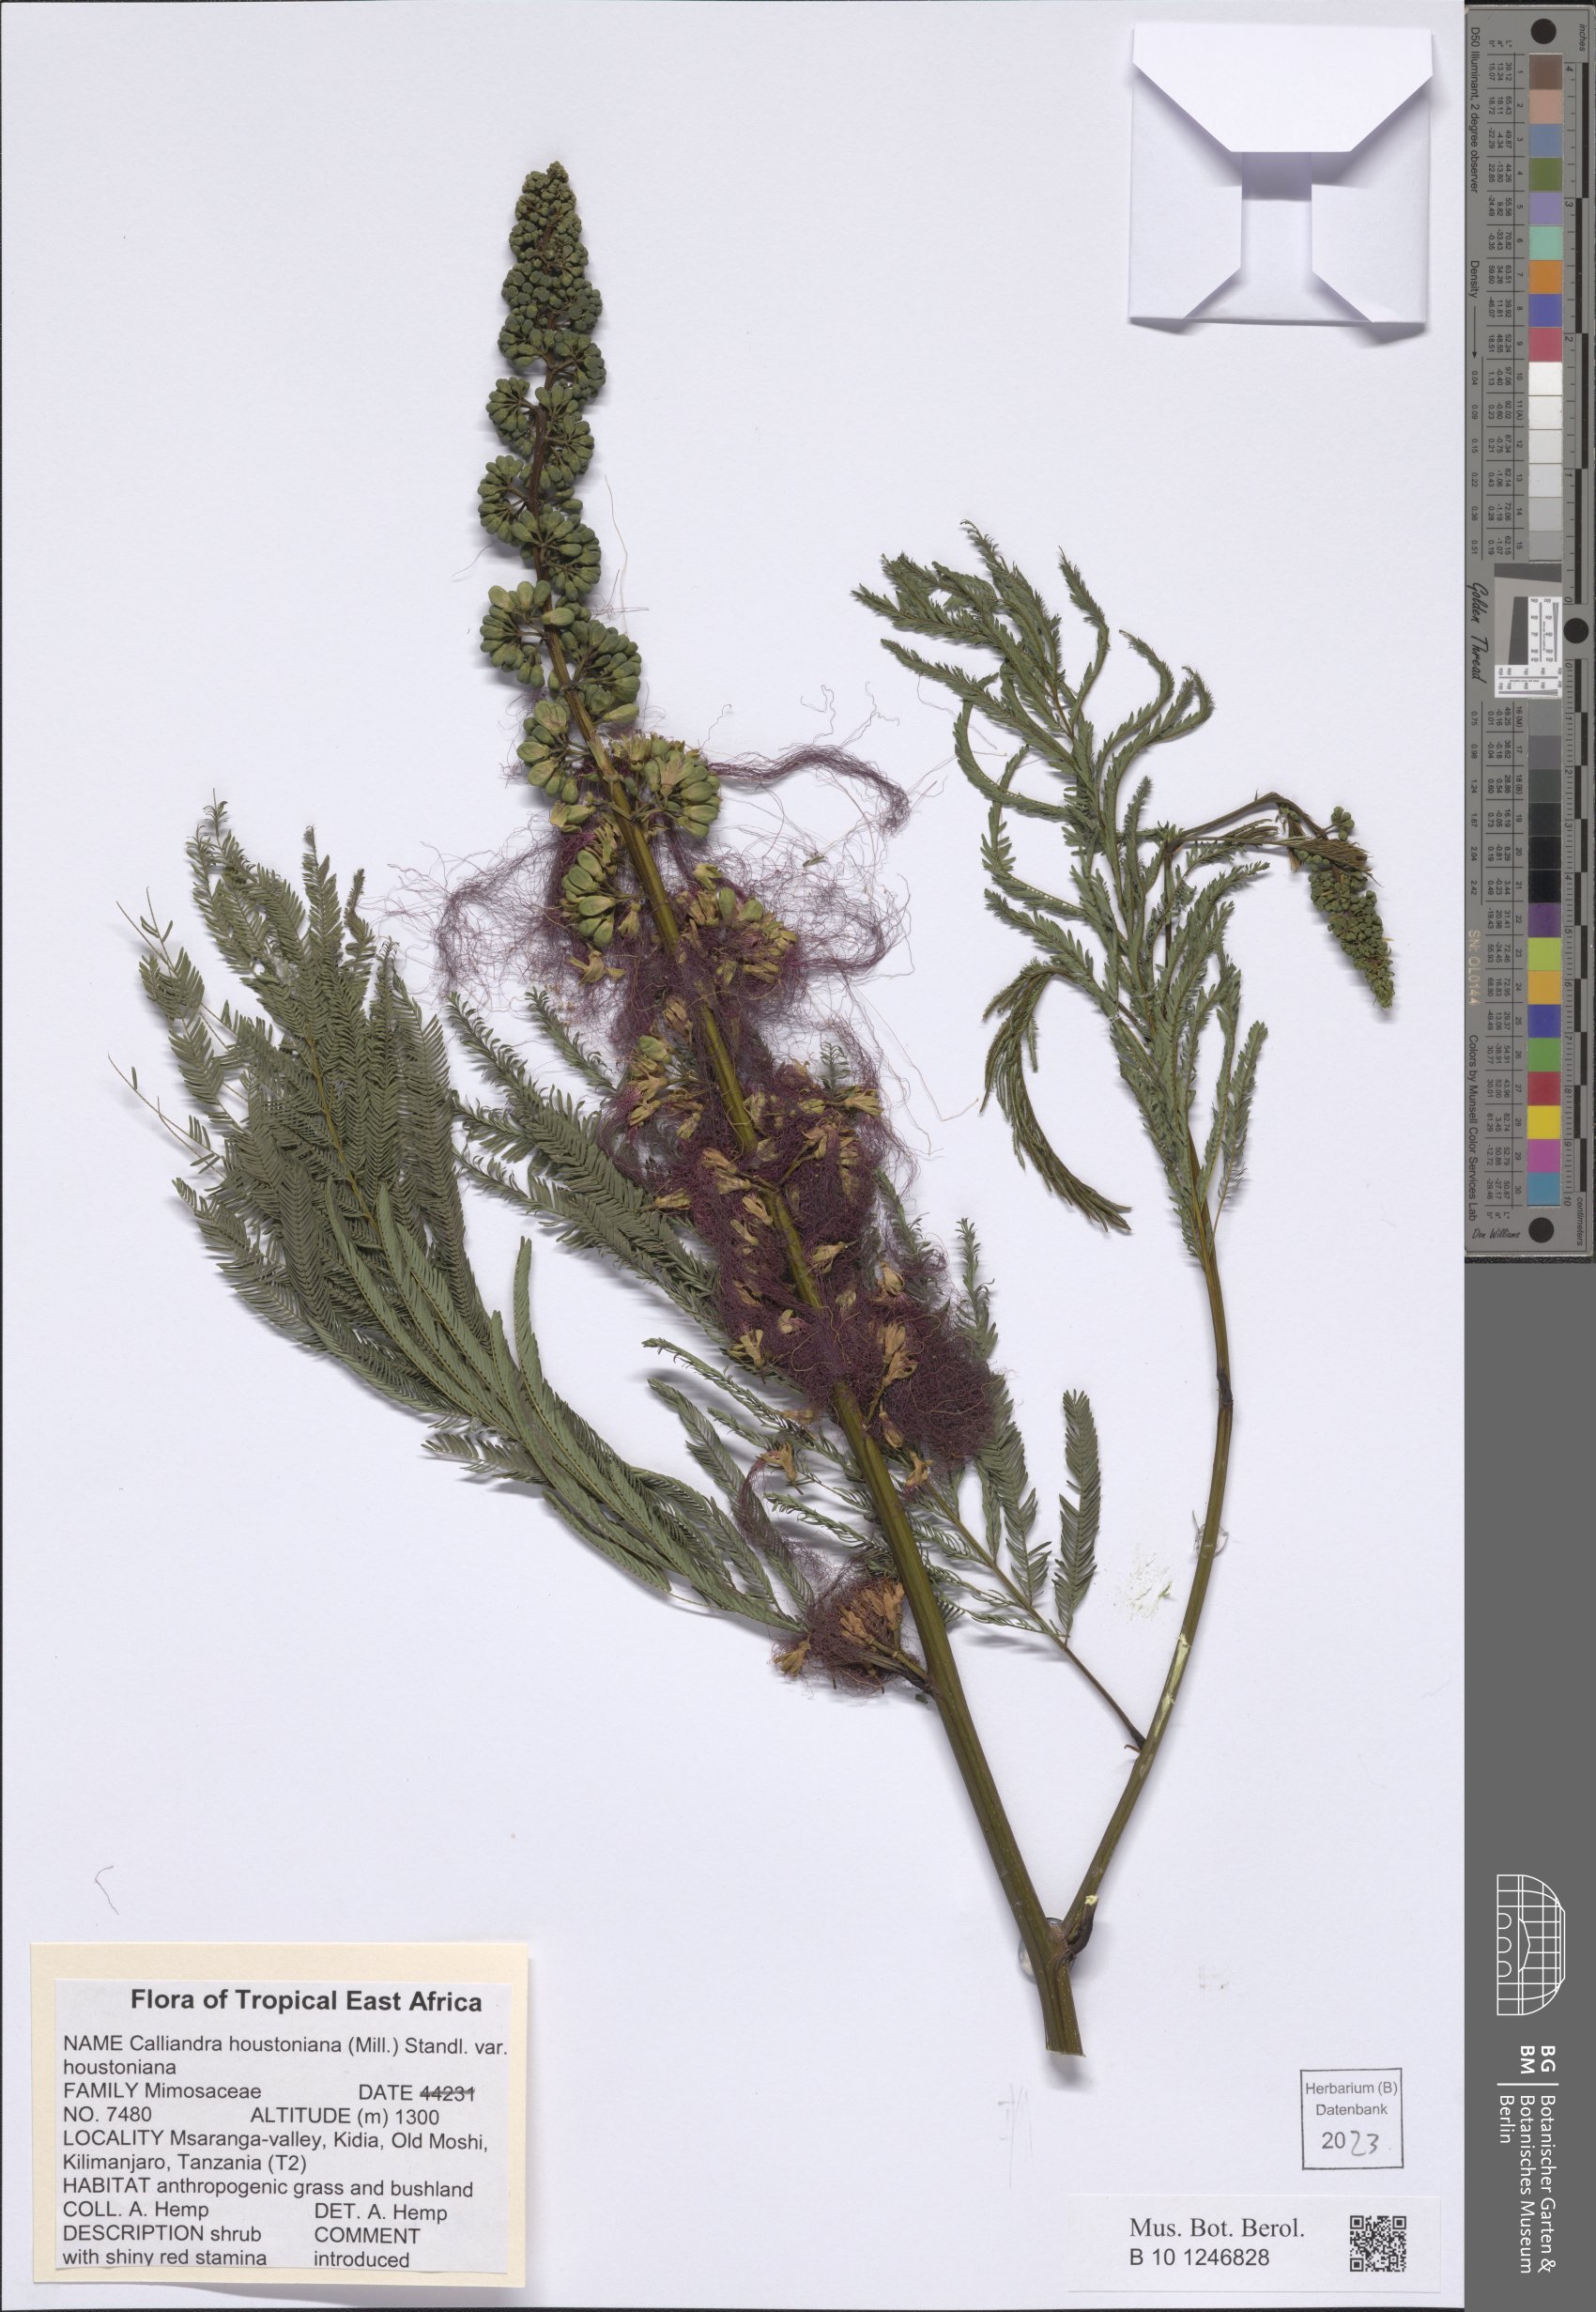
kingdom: Plantae
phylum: Tracheophyta
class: Magnoliopsida
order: Fabales
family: Fabaceae
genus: Calliandra
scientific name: Calliandra houstoniana
